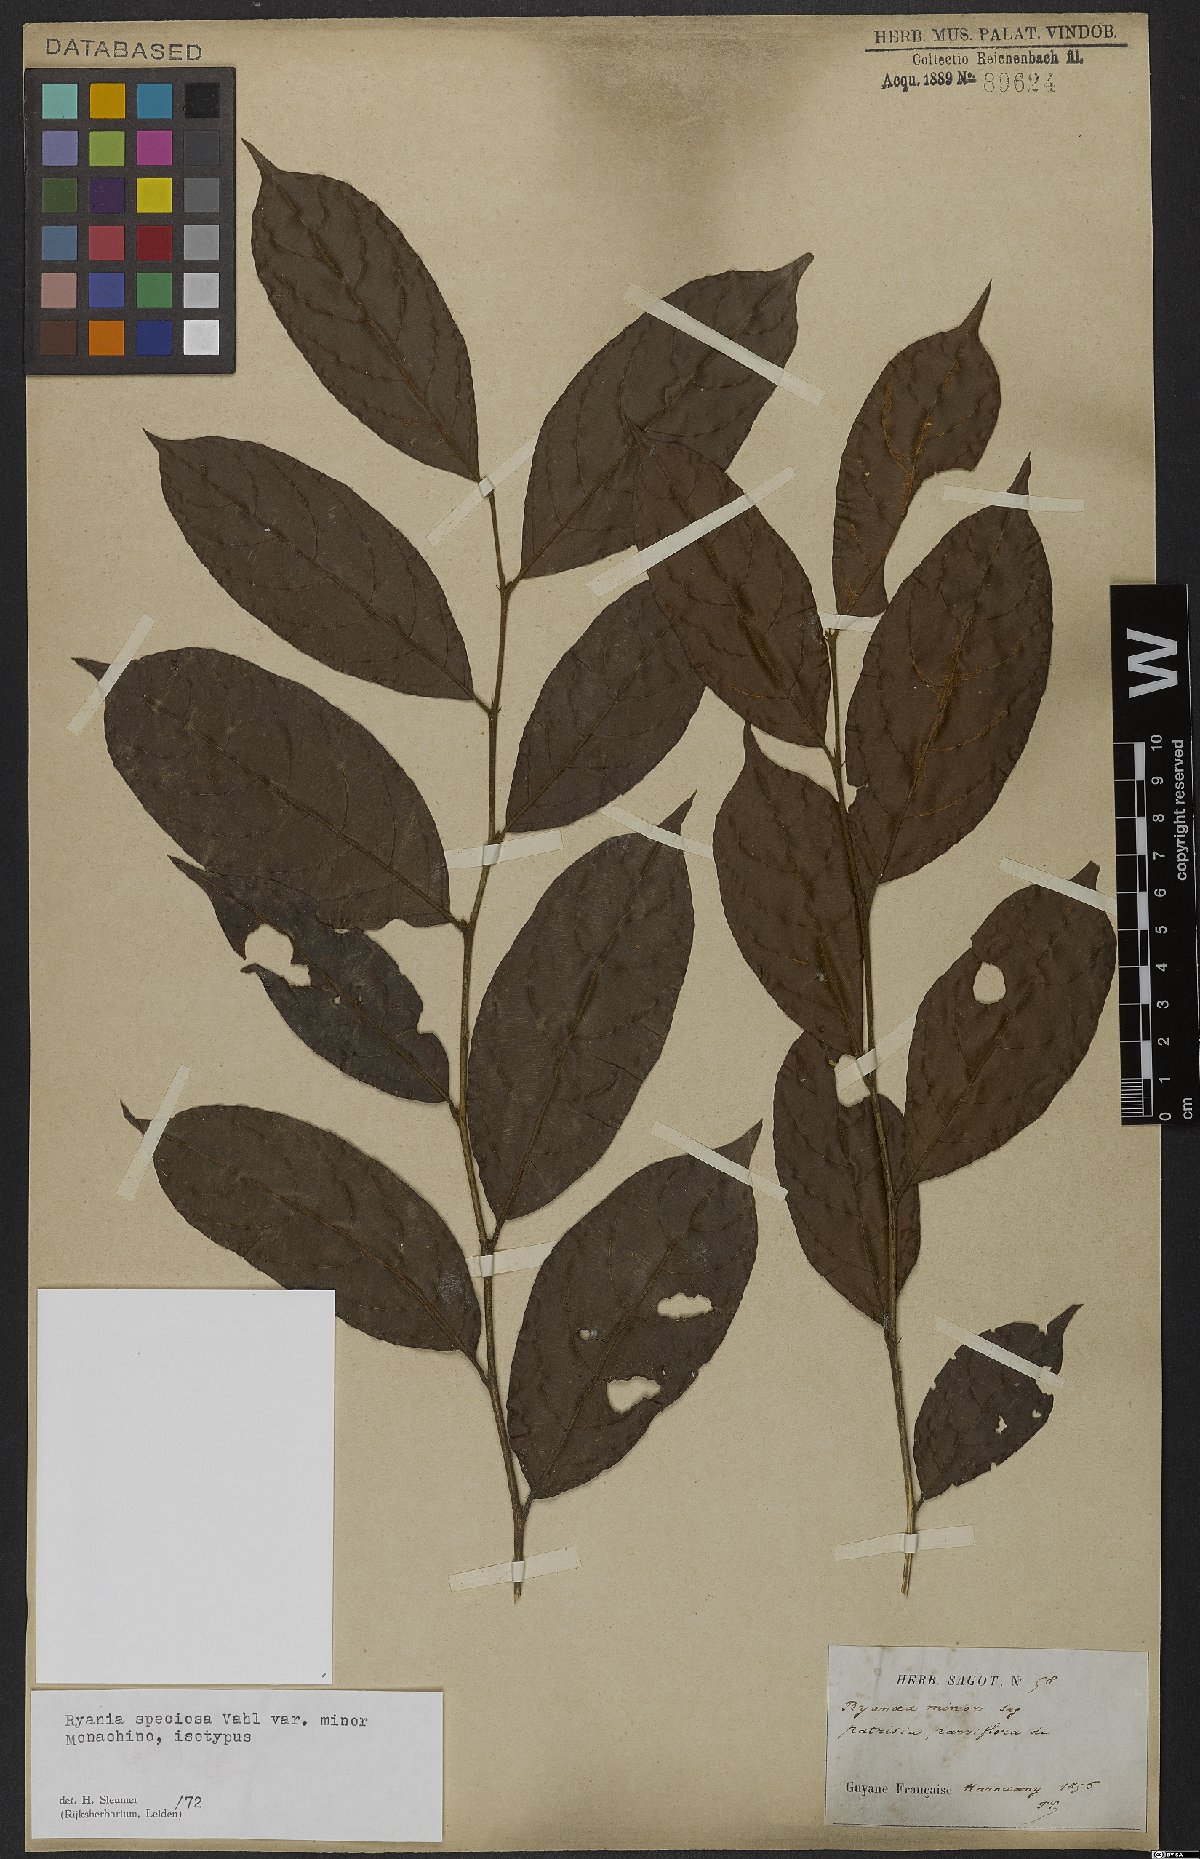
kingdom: Plantae
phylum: Tracheophyta
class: Magnoliopsida
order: Malpighiales
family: Salicaceae
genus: Ryania
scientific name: Ryania speciosa
